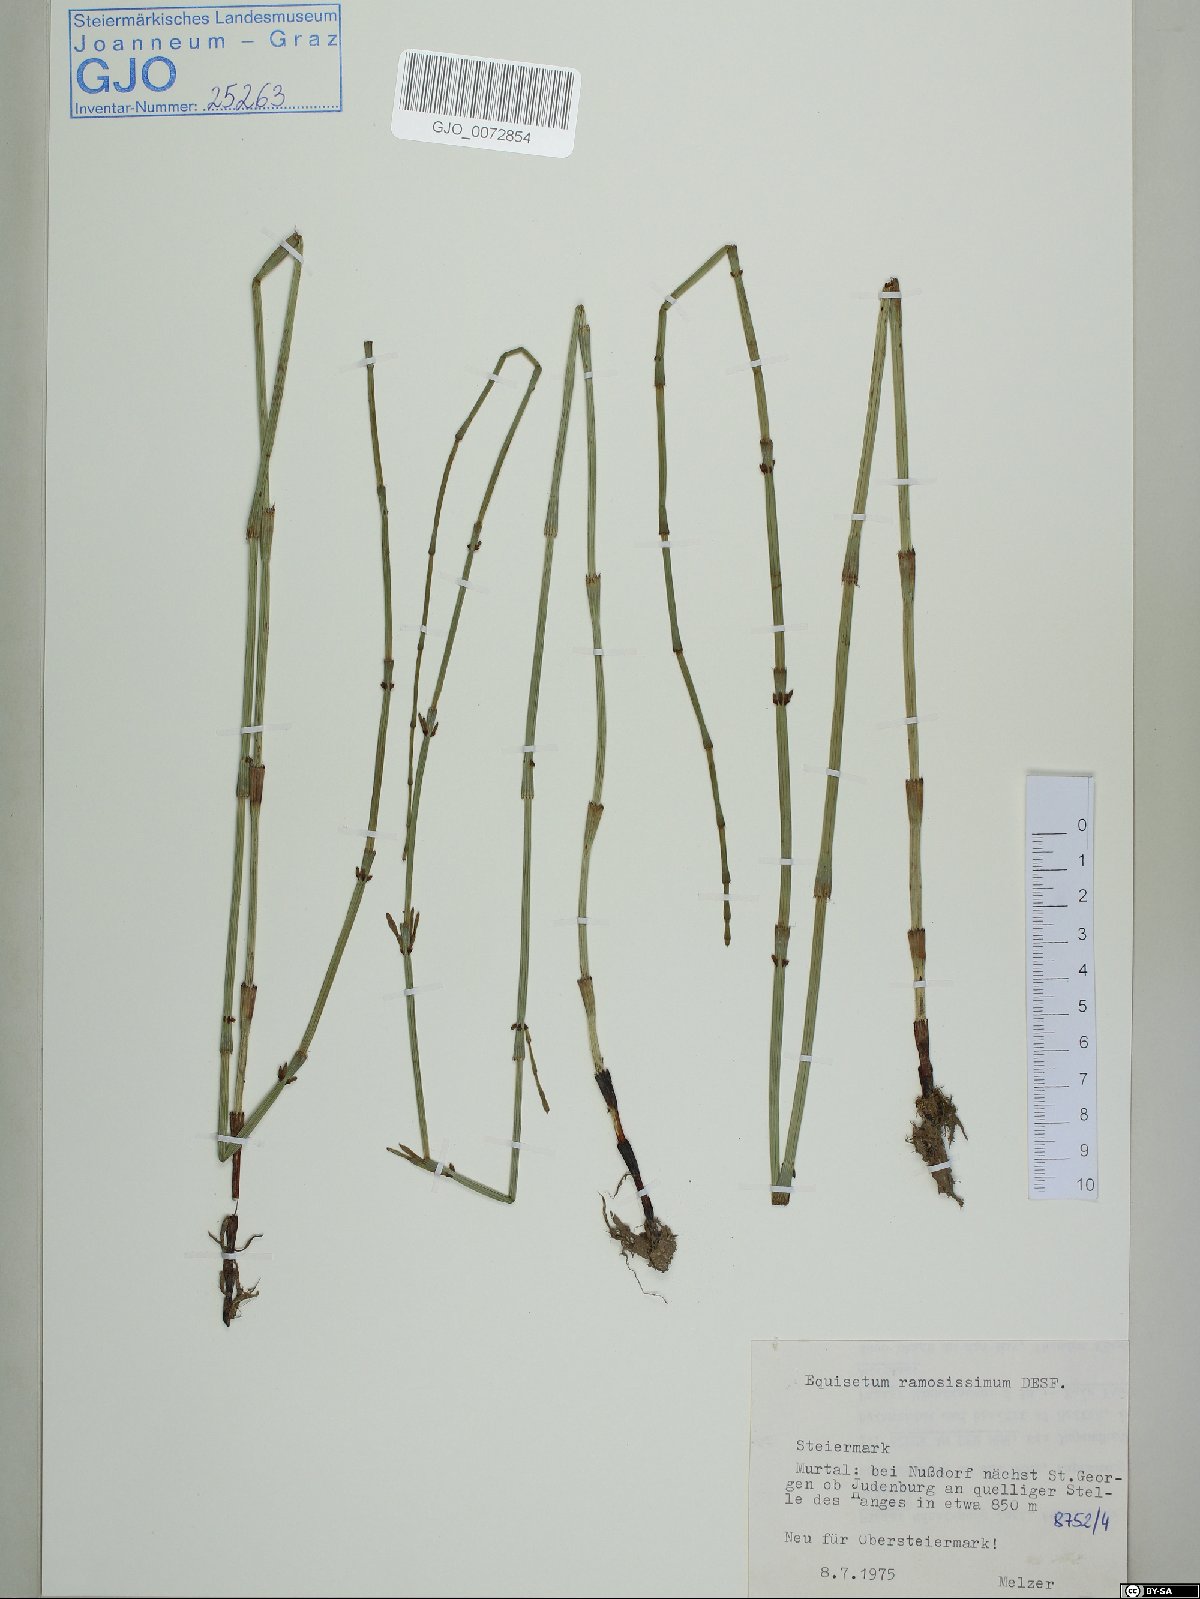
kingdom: Plantae
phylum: Tracheophyta
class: Polypodiopsida
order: Equisetales
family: Equisetaceae
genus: Equisetum
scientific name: Equisetum ramosissimum
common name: Branched horsetail
